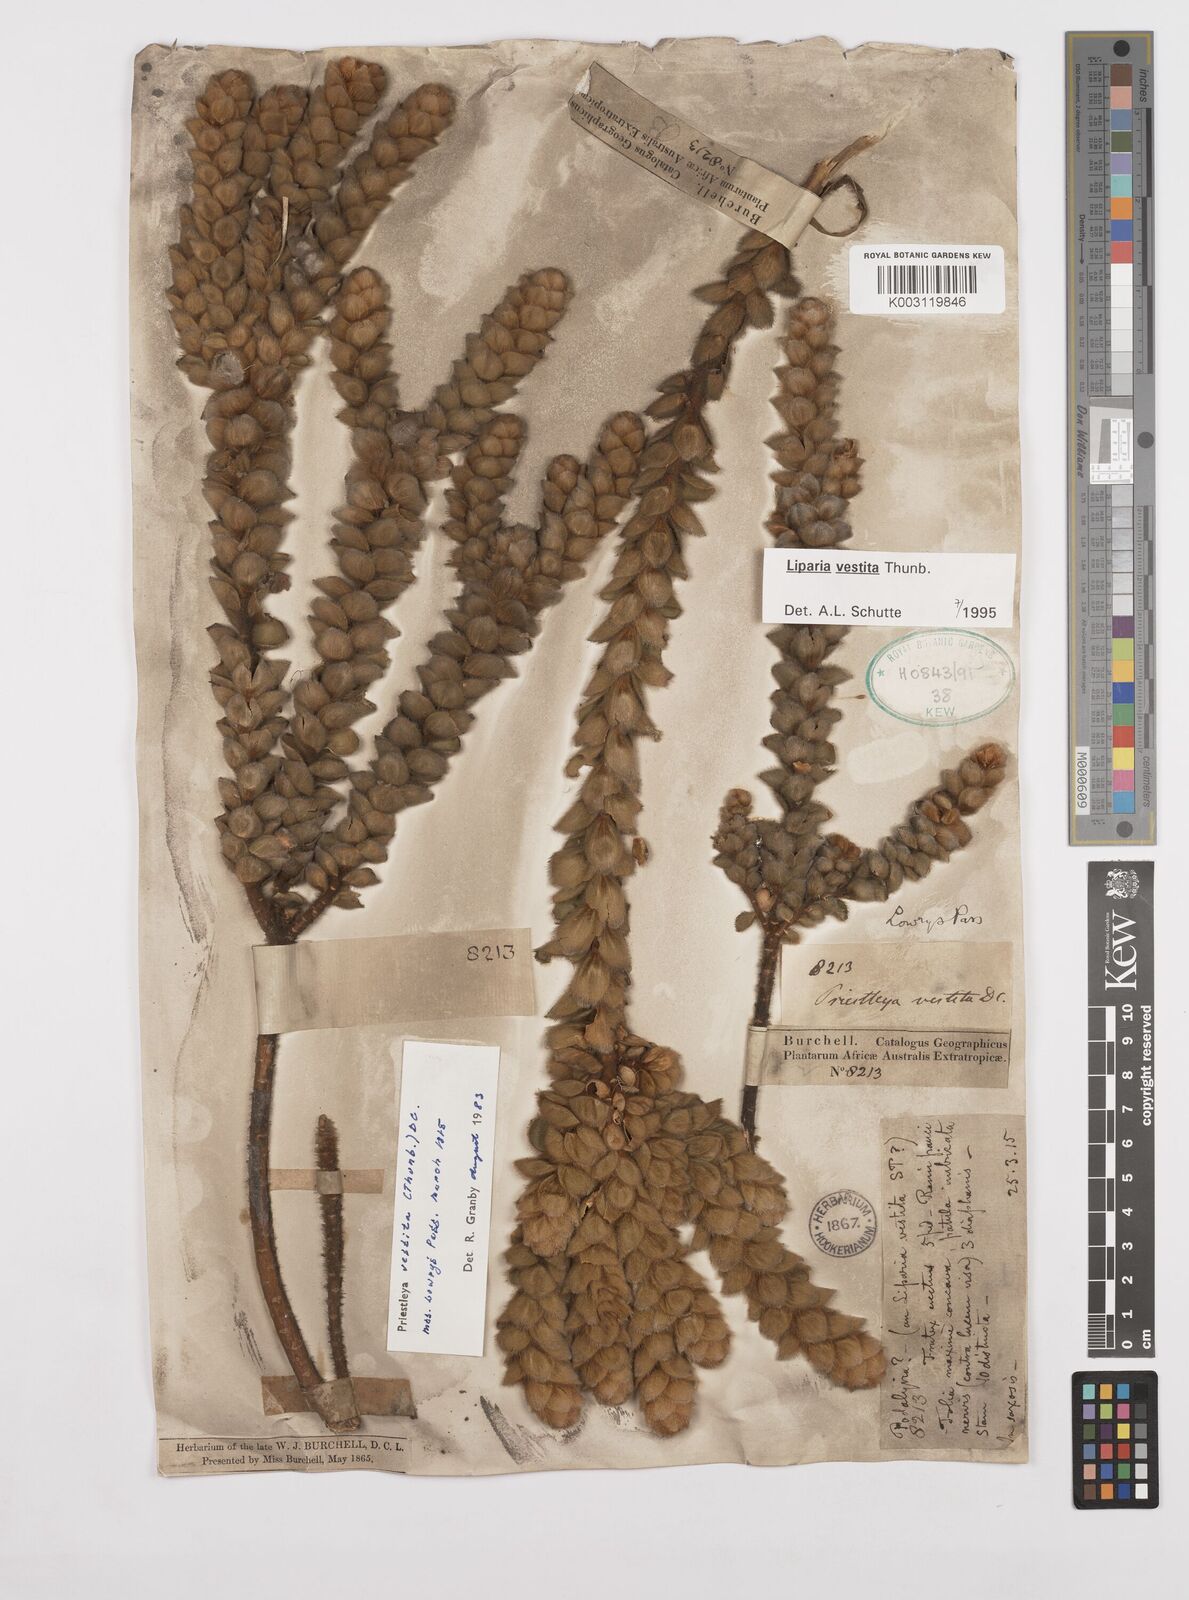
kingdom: Plantae
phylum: Tracheophyta
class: Magnoliopsida
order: Fabales
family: Fabaceae
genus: Liparia
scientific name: Liparia vestita
